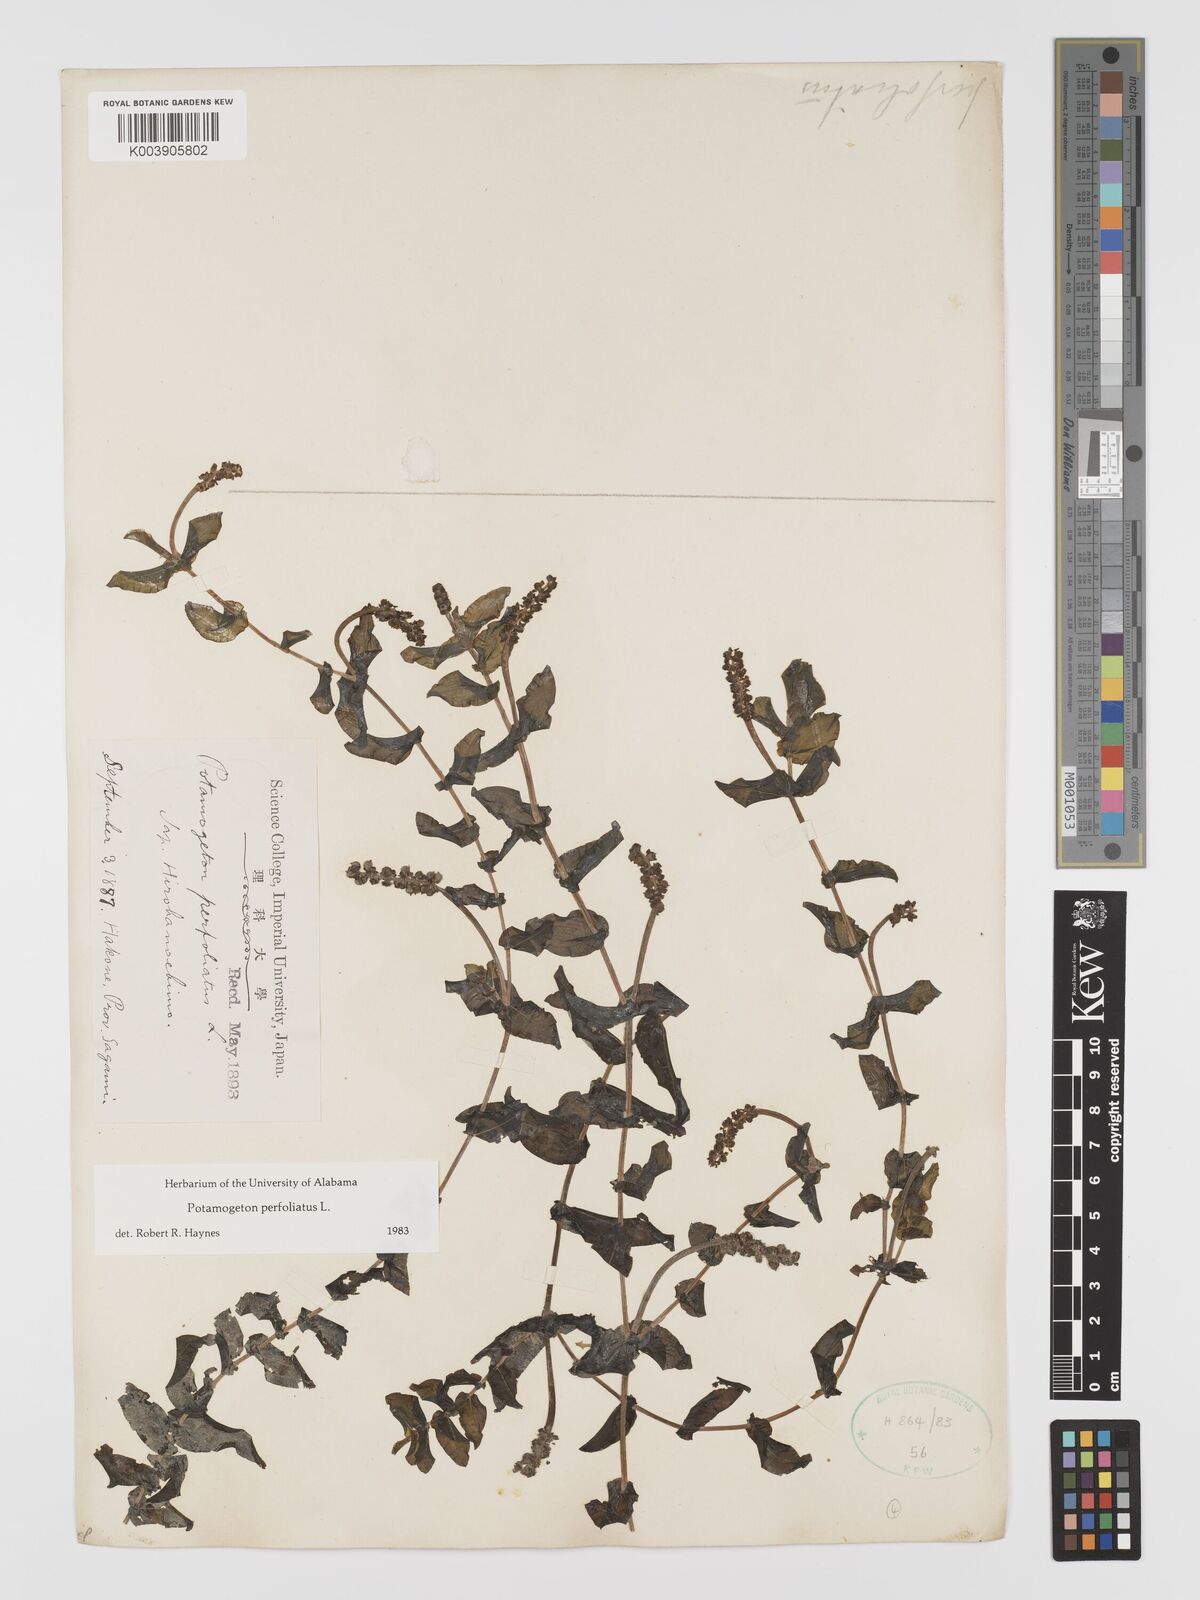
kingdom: Plantae
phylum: Tracheophyta
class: Liliopsida
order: Alismatales
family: Potamogetonaceae
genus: Potamogeton
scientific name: Potamogeton perfoliatus
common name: Perfoliate pondweed
